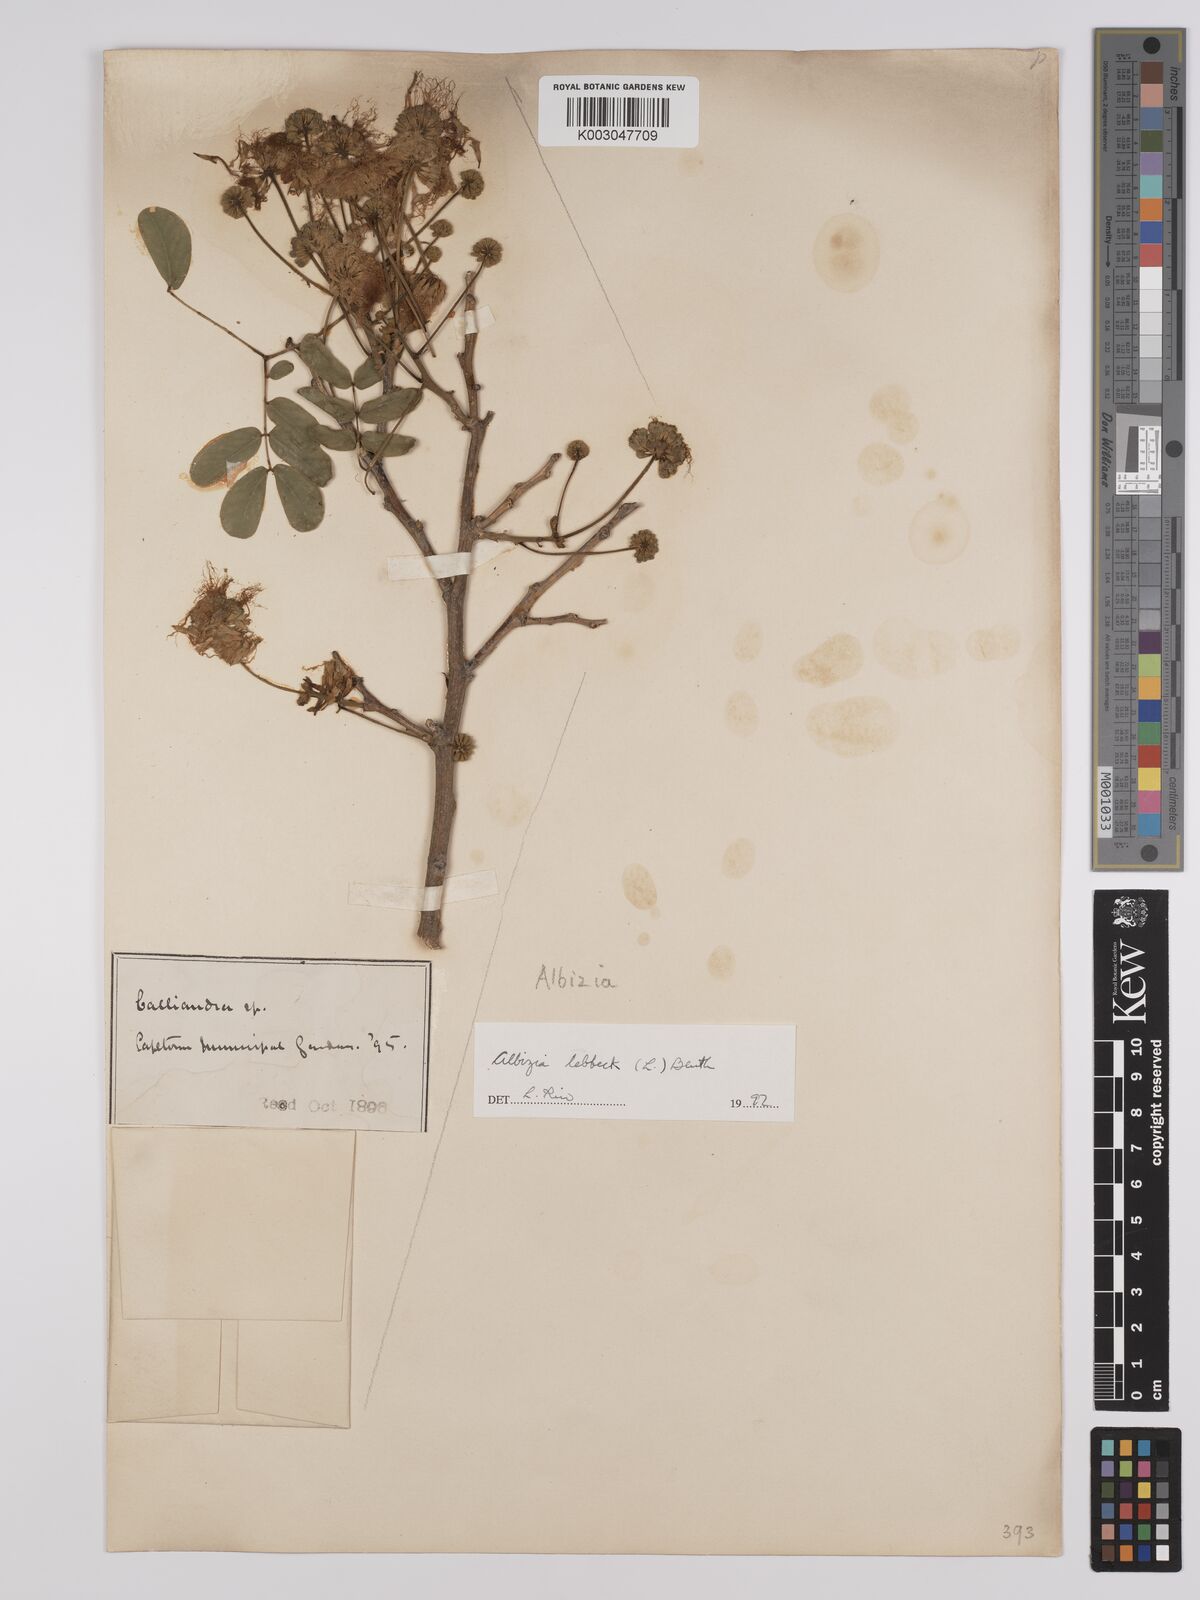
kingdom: Plantae
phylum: Tracheophyta
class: Magnoliopsida
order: Fabales
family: Fabaceae
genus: Albizia
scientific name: Albizia lebbeck
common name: Woman's tongue
